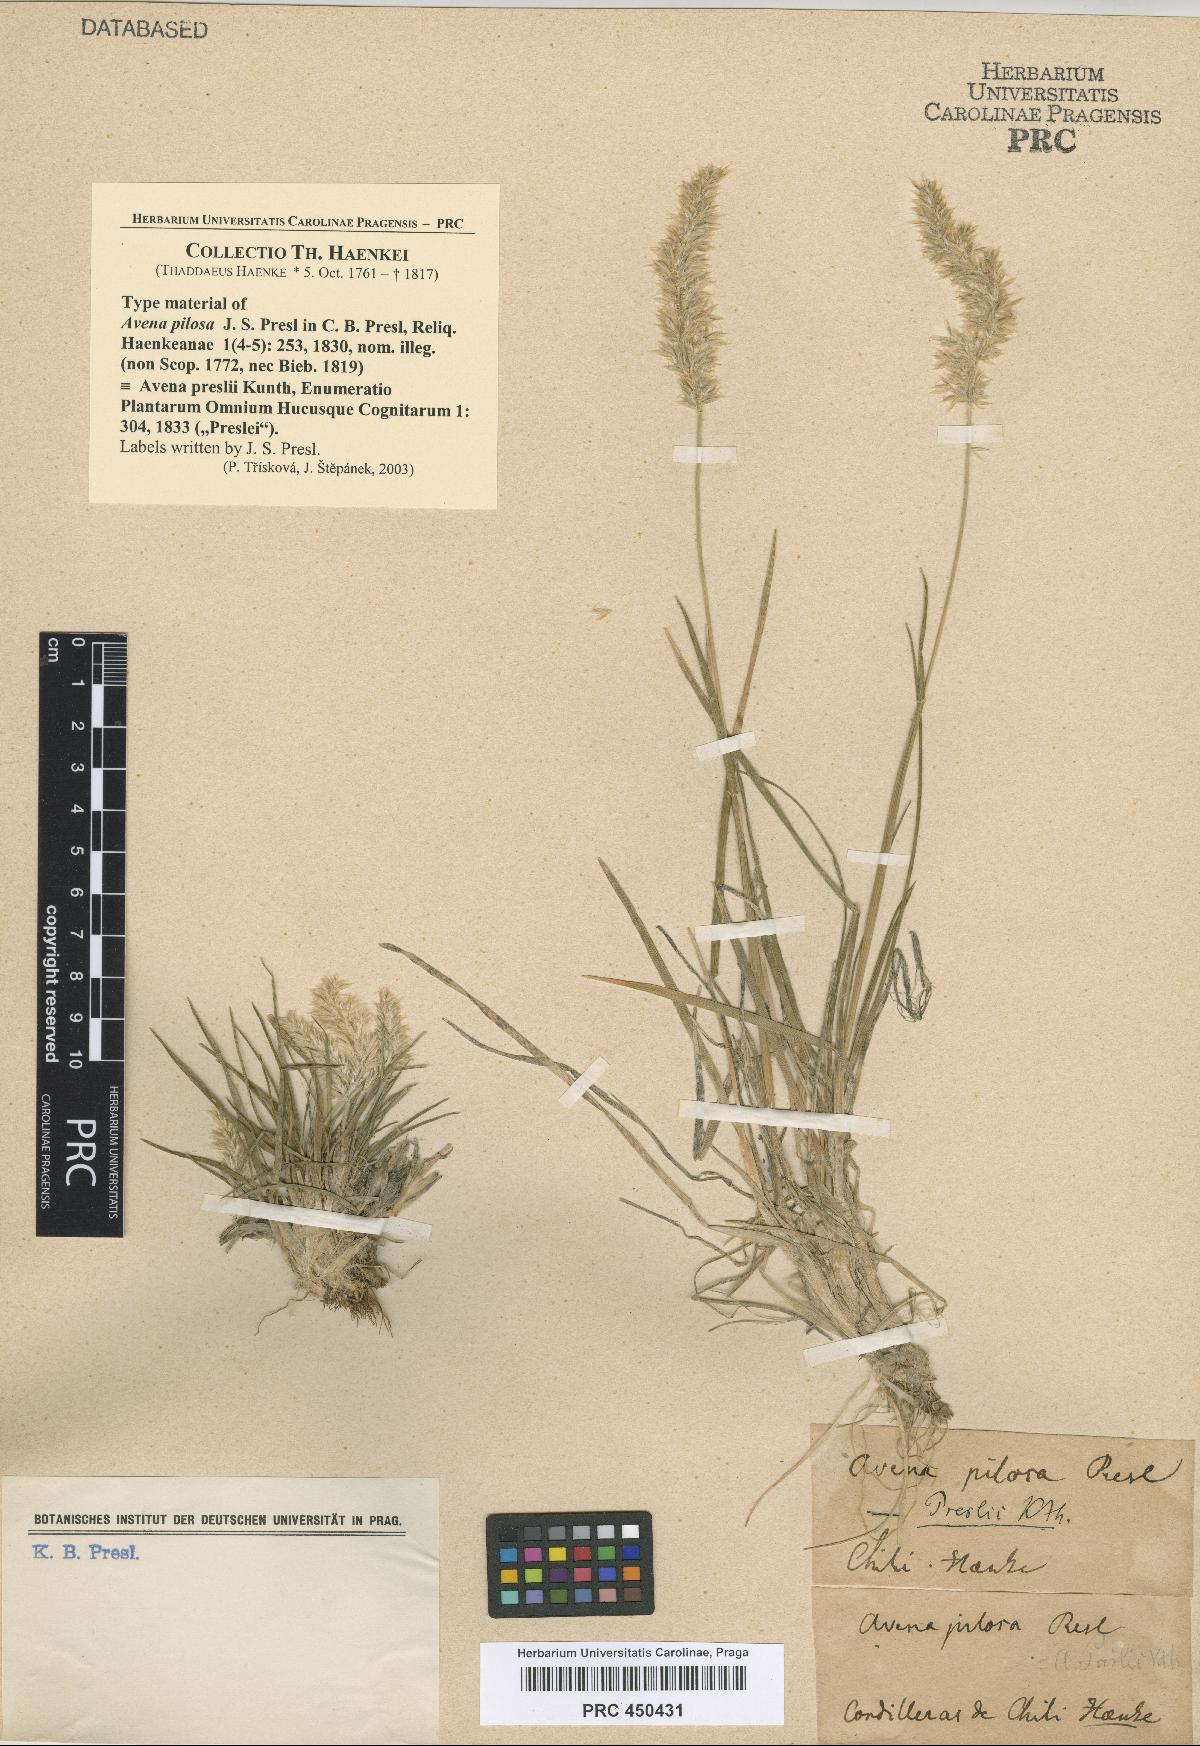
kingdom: Plantae
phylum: Tracheophyta
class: Liliopsida
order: Poales
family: Poaceae
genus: Koeleria
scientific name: Koeleria preslii
